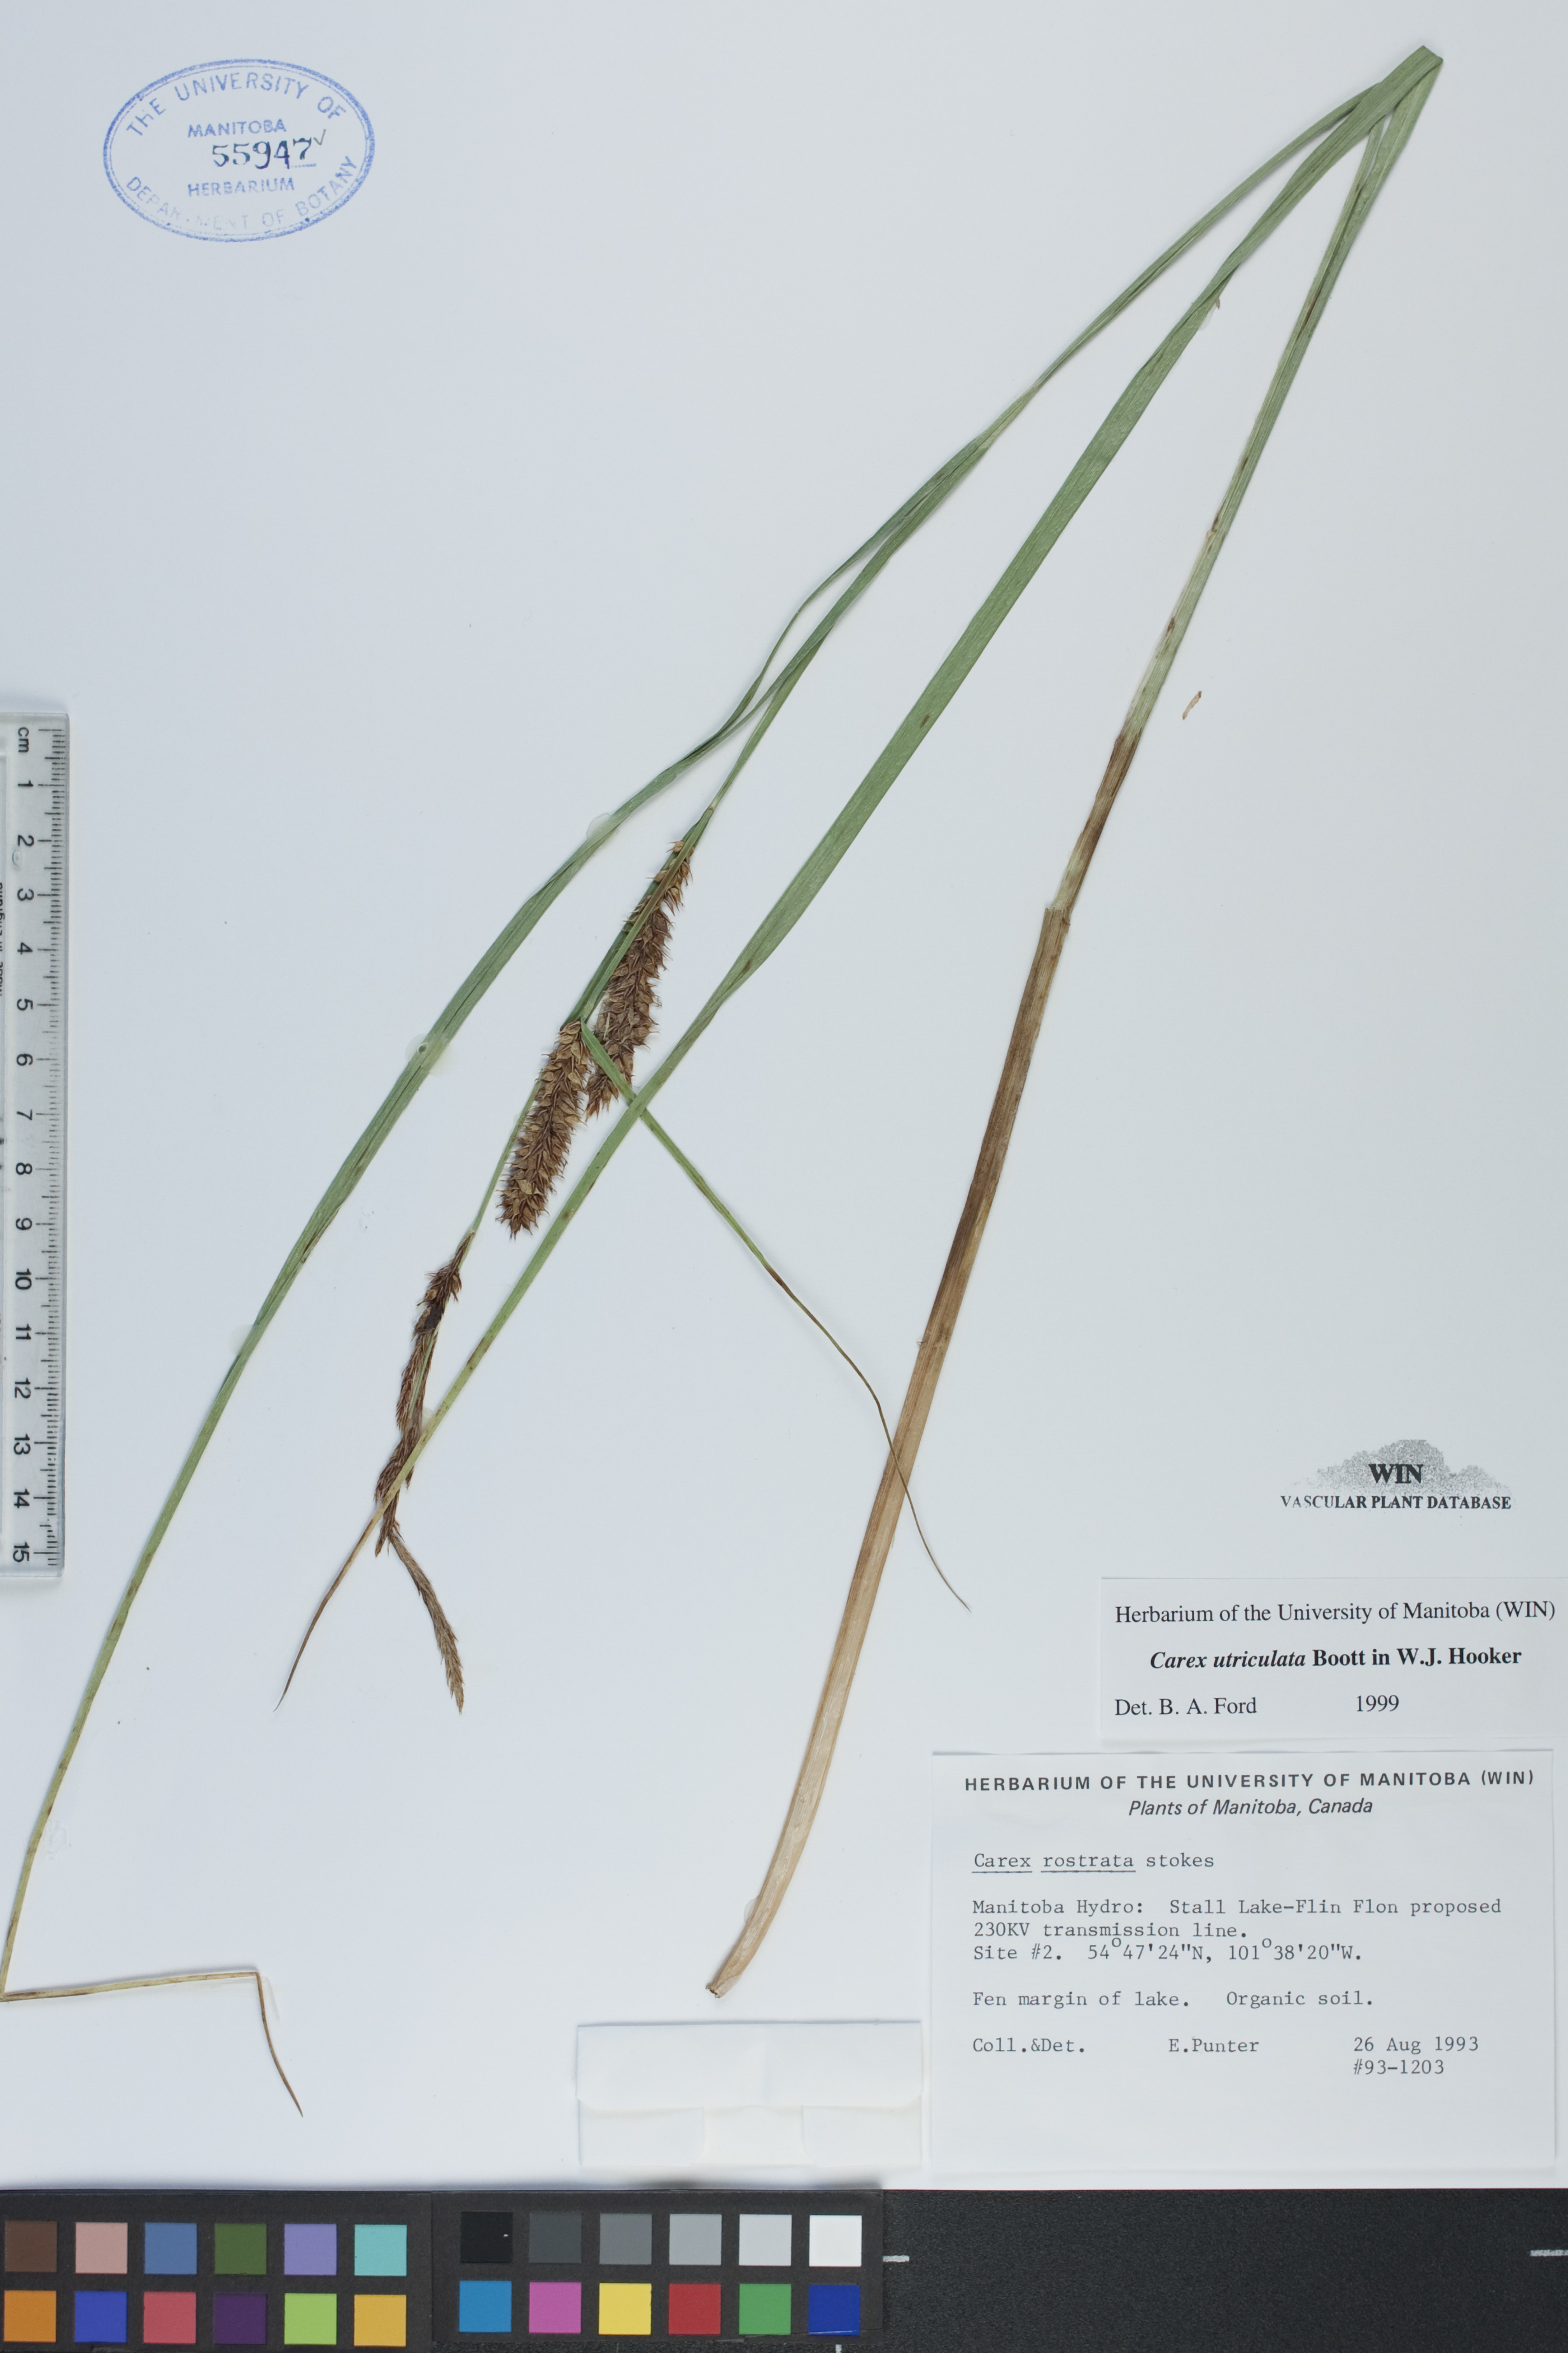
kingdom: Plantae
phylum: Tracheophyta
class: Liliopsida
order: Poales
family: Cyperaceae
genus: Carex
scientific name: Carex utriculata
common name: Beaked sedge
